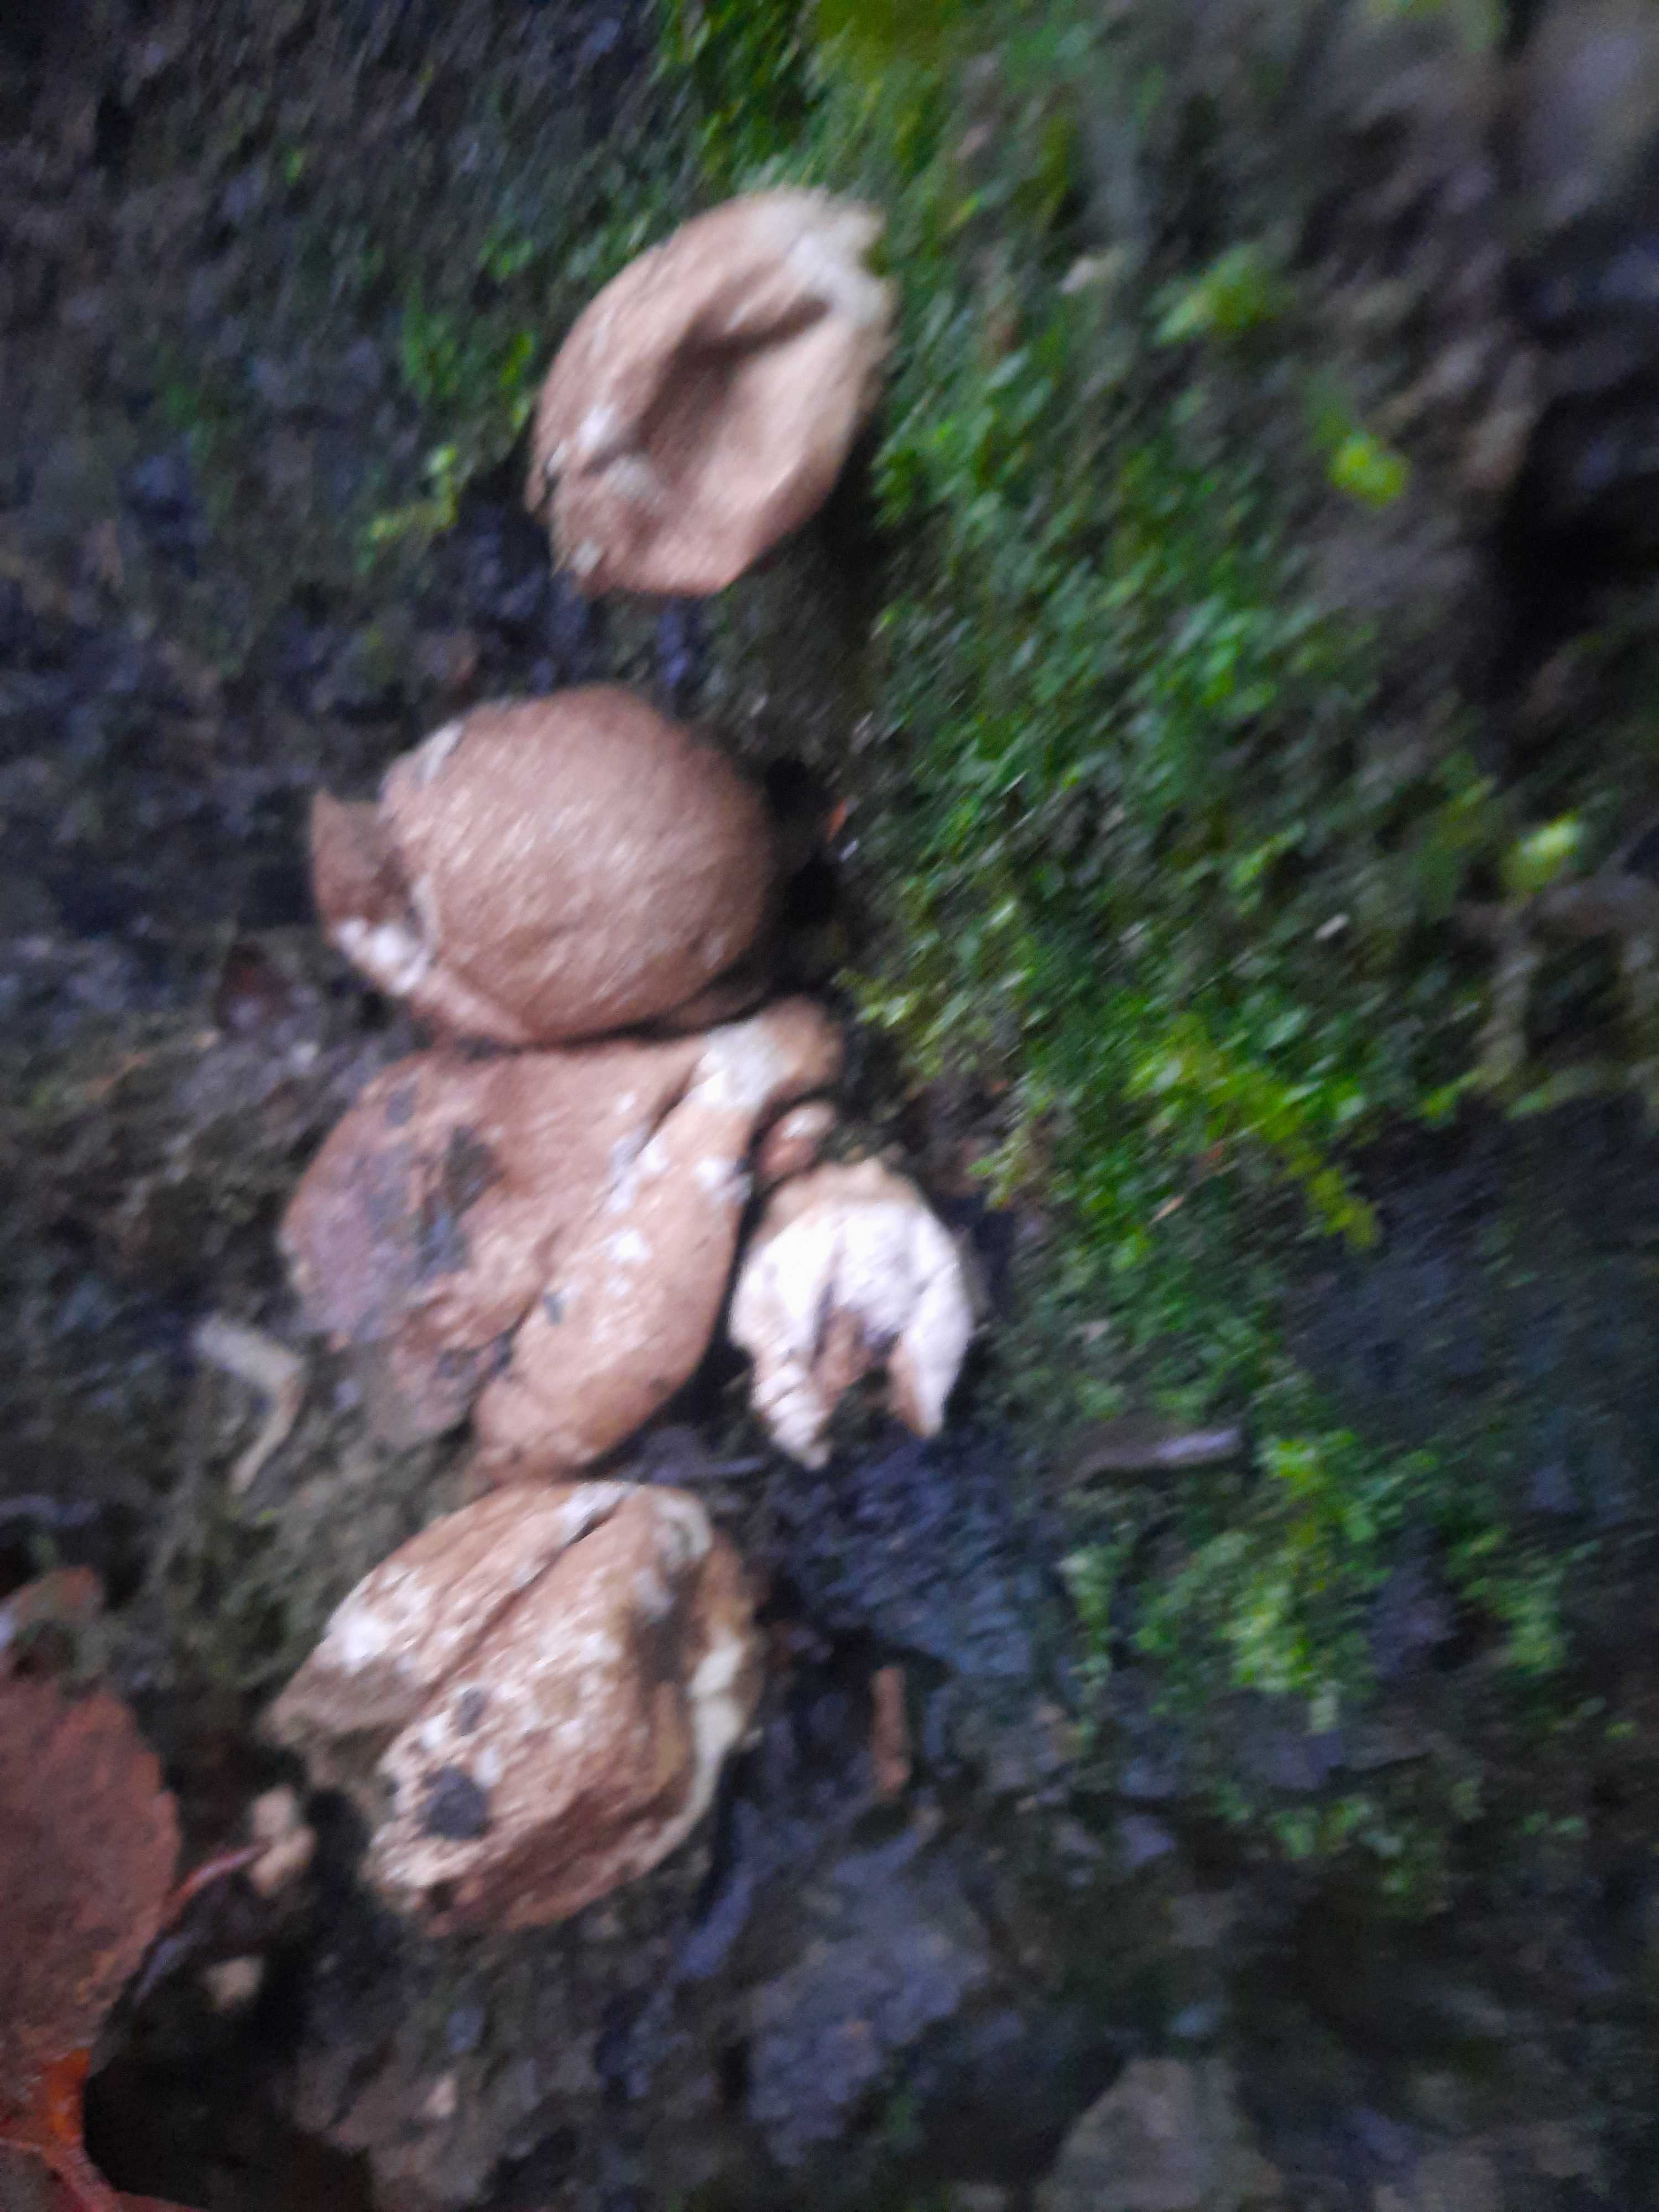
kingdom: Fungi
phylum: Basidiomycota
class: Agaricomycetes
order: Agaricales
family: Lycoperdaceae
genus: Apioperdon
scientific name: Apioperdon pyriforme
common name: pære-støvbold
